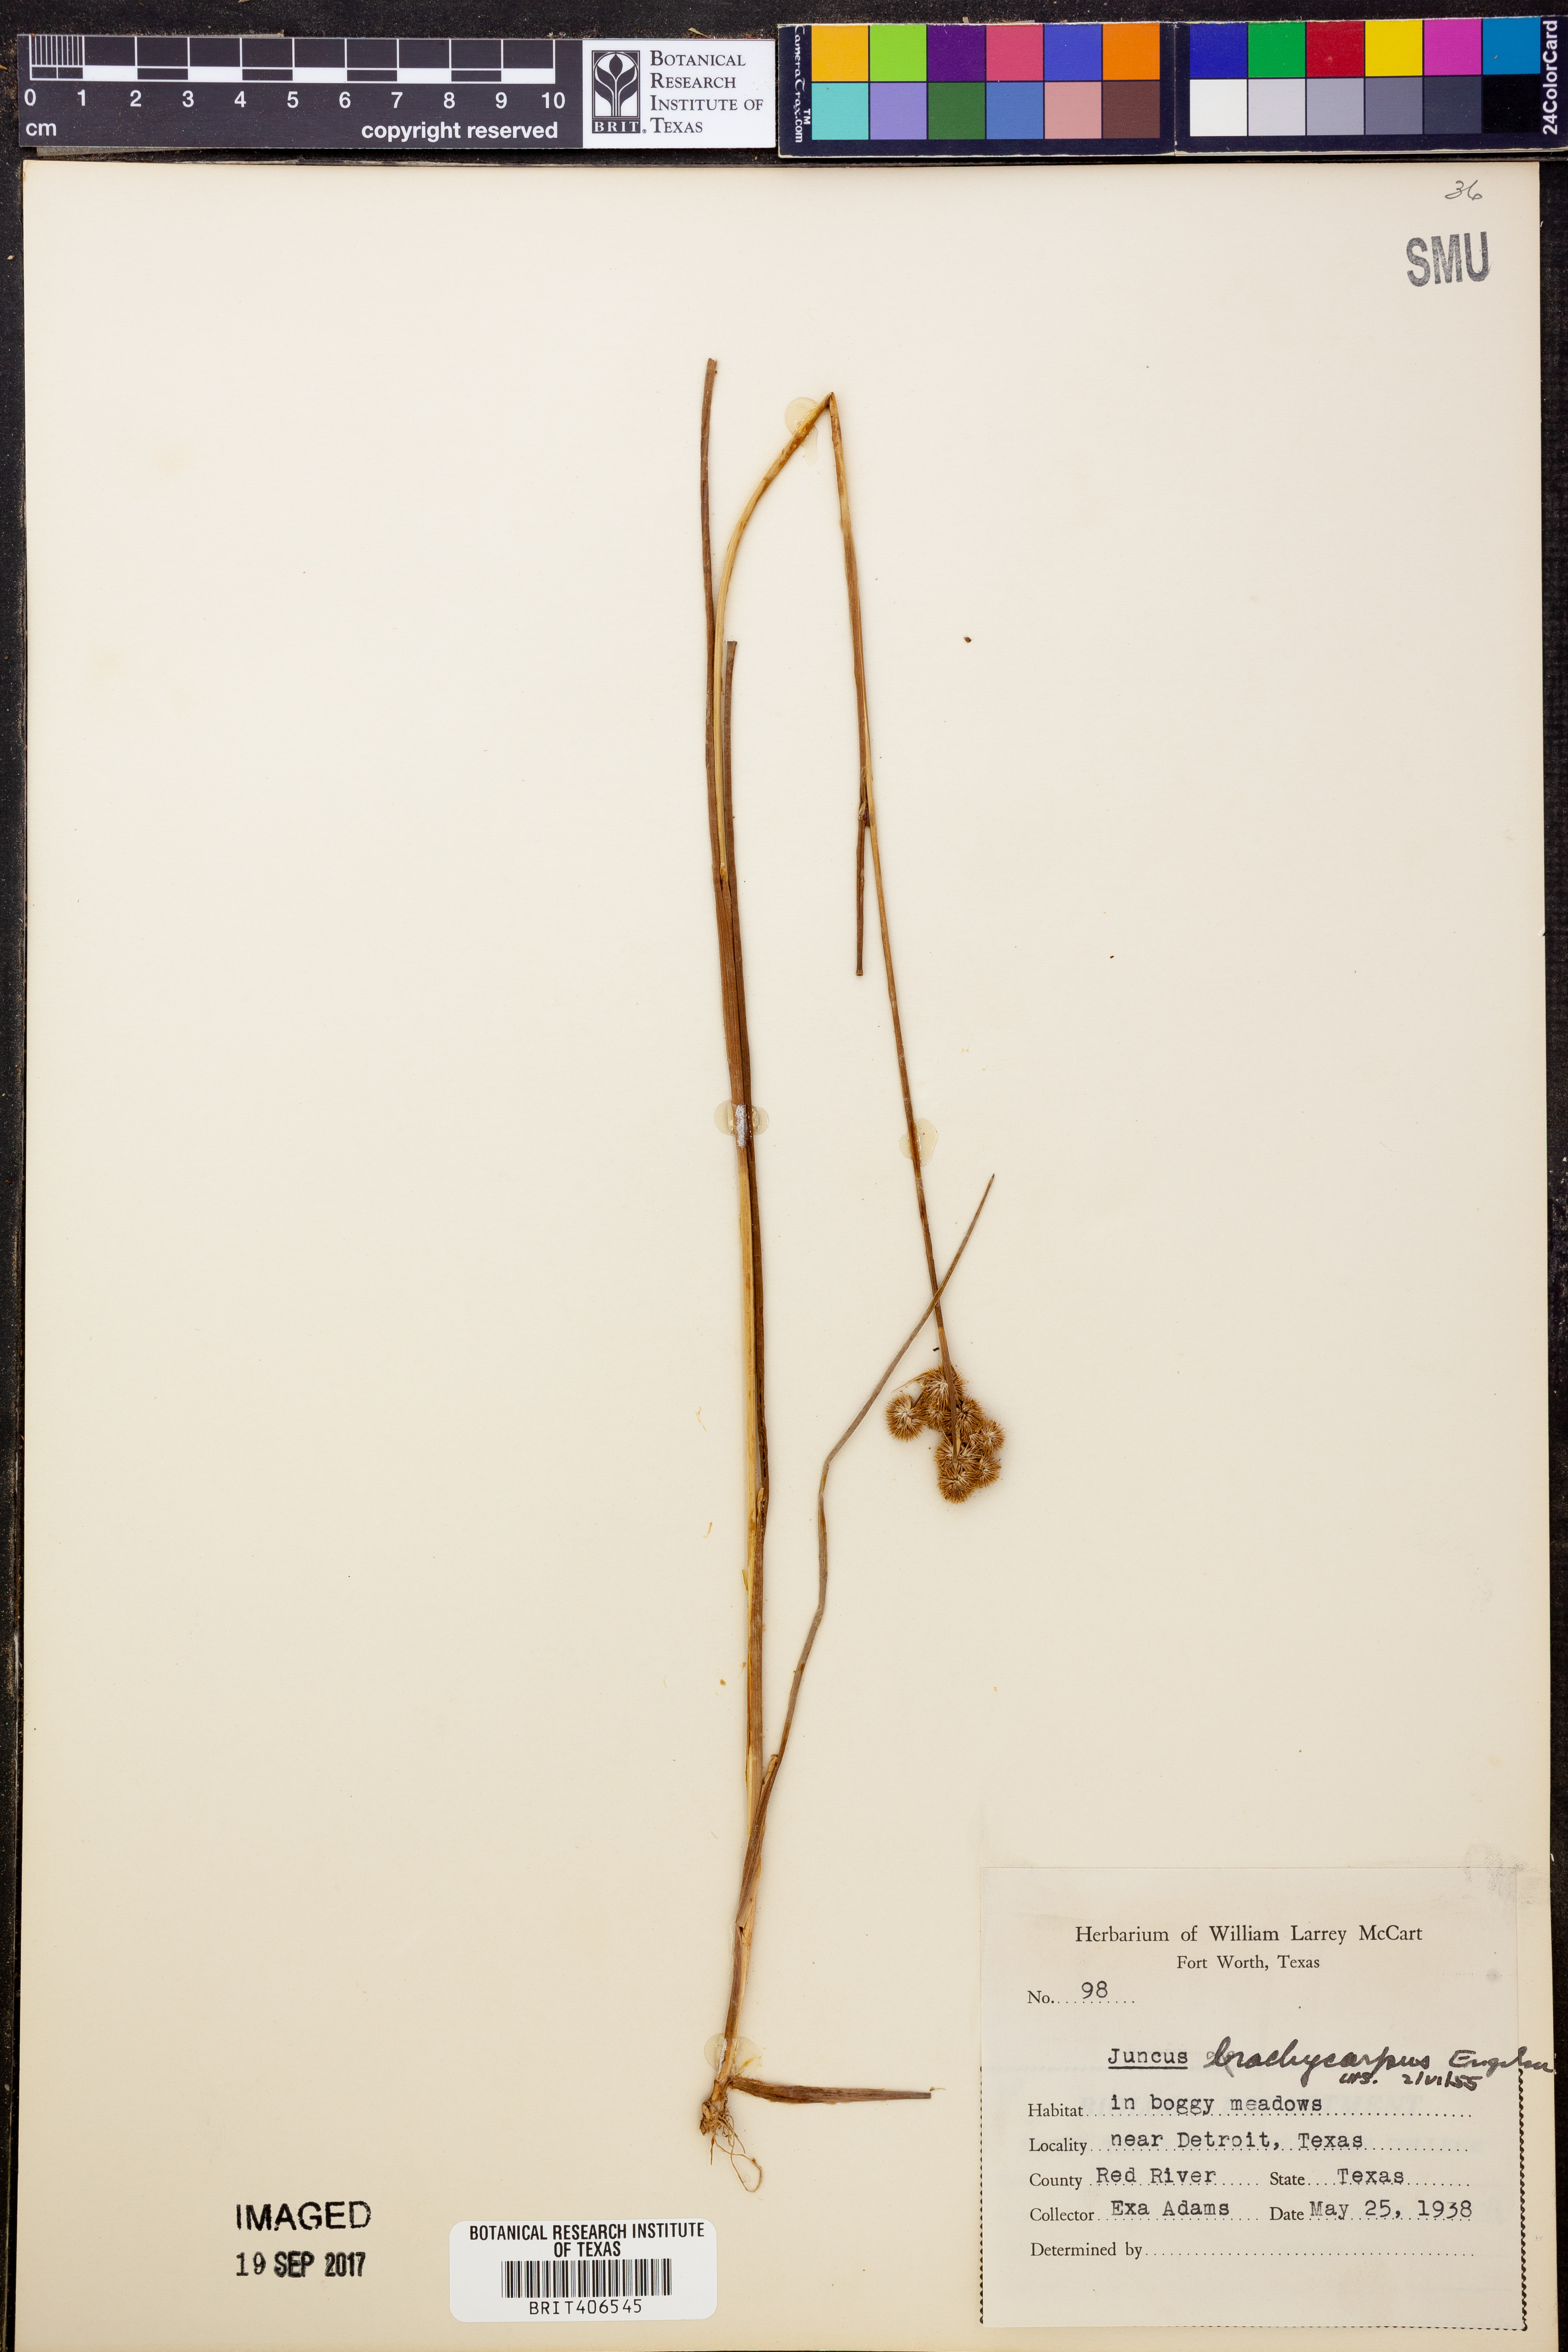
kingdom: Plantae
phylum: Tracheophyta
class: Liliopsida
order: Poales
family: Juncaceae
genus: Juncus
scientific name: Juncus brachycarpus
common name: Shore rush
